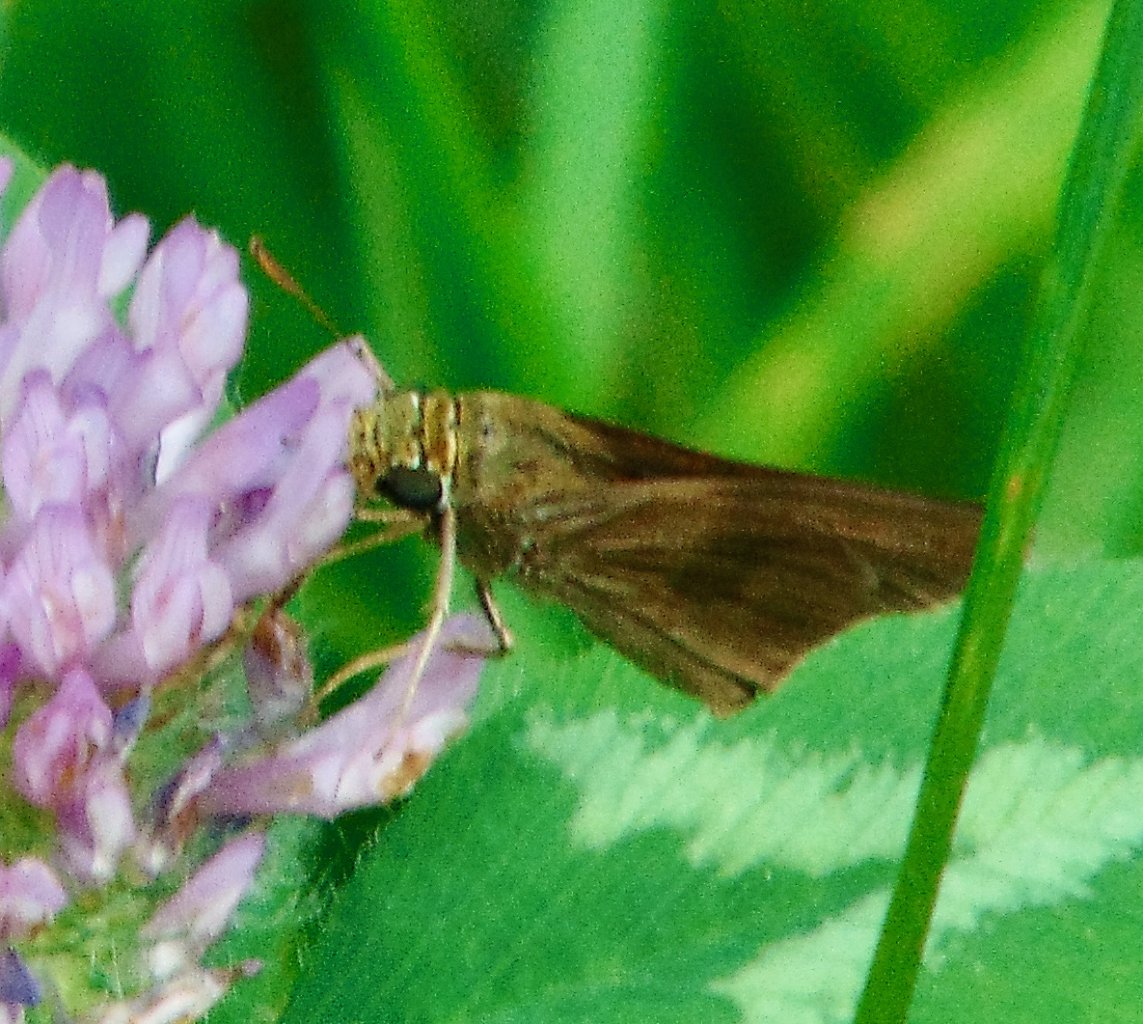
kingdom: Animalia
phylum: Arthropoda
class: Insecta
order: Lepidoptera
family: Hesperiidae
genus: Euphyes
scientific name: Euphyes vestris
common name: Dun Skipper
